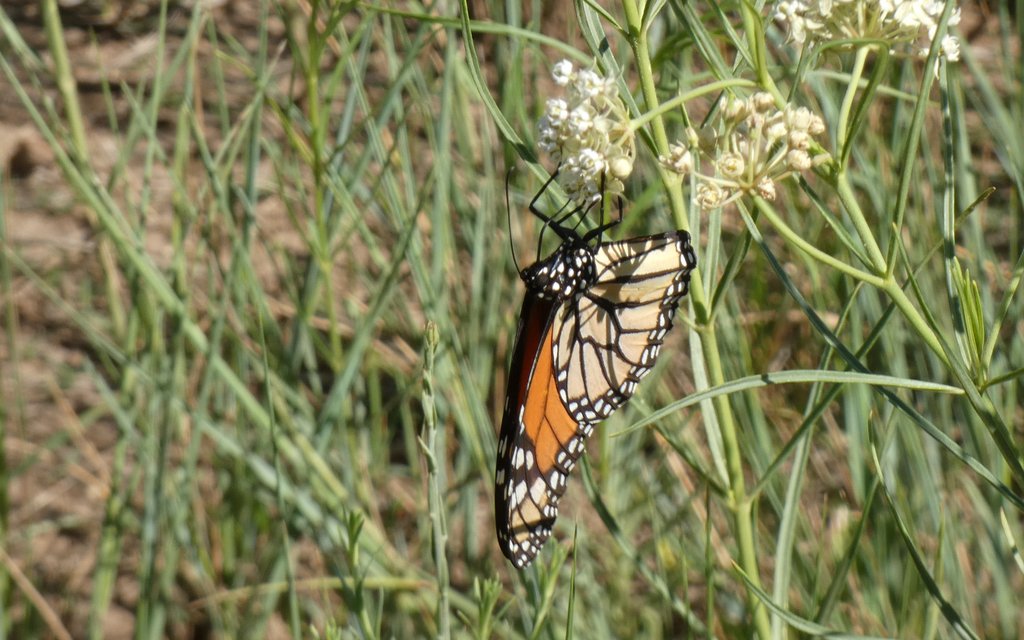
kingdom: Animalia
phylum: Arthropoda
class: Insecta
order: Lepidoptera
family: Nymphalidae
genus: Danaus
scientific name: Danaus plexippus
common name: Monarch
